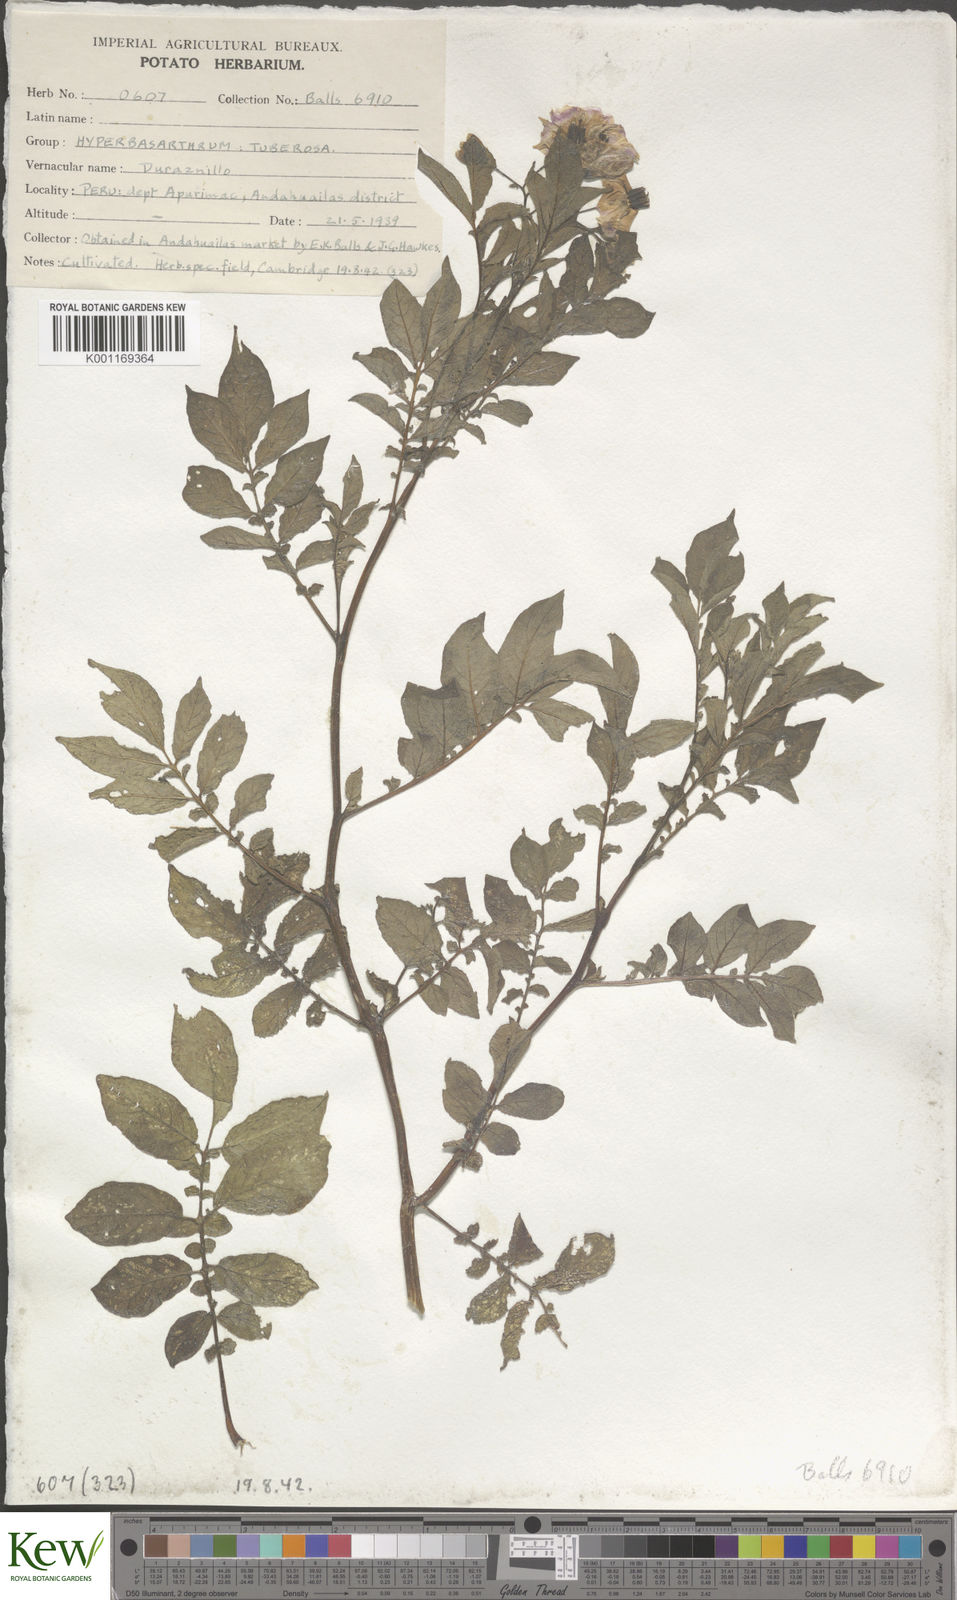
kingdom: Plantae
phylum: Tracheophyta
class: Magnoliopsida
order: Solanales
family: Solanaceae
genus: Solanum
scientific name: Solanum chaucha
